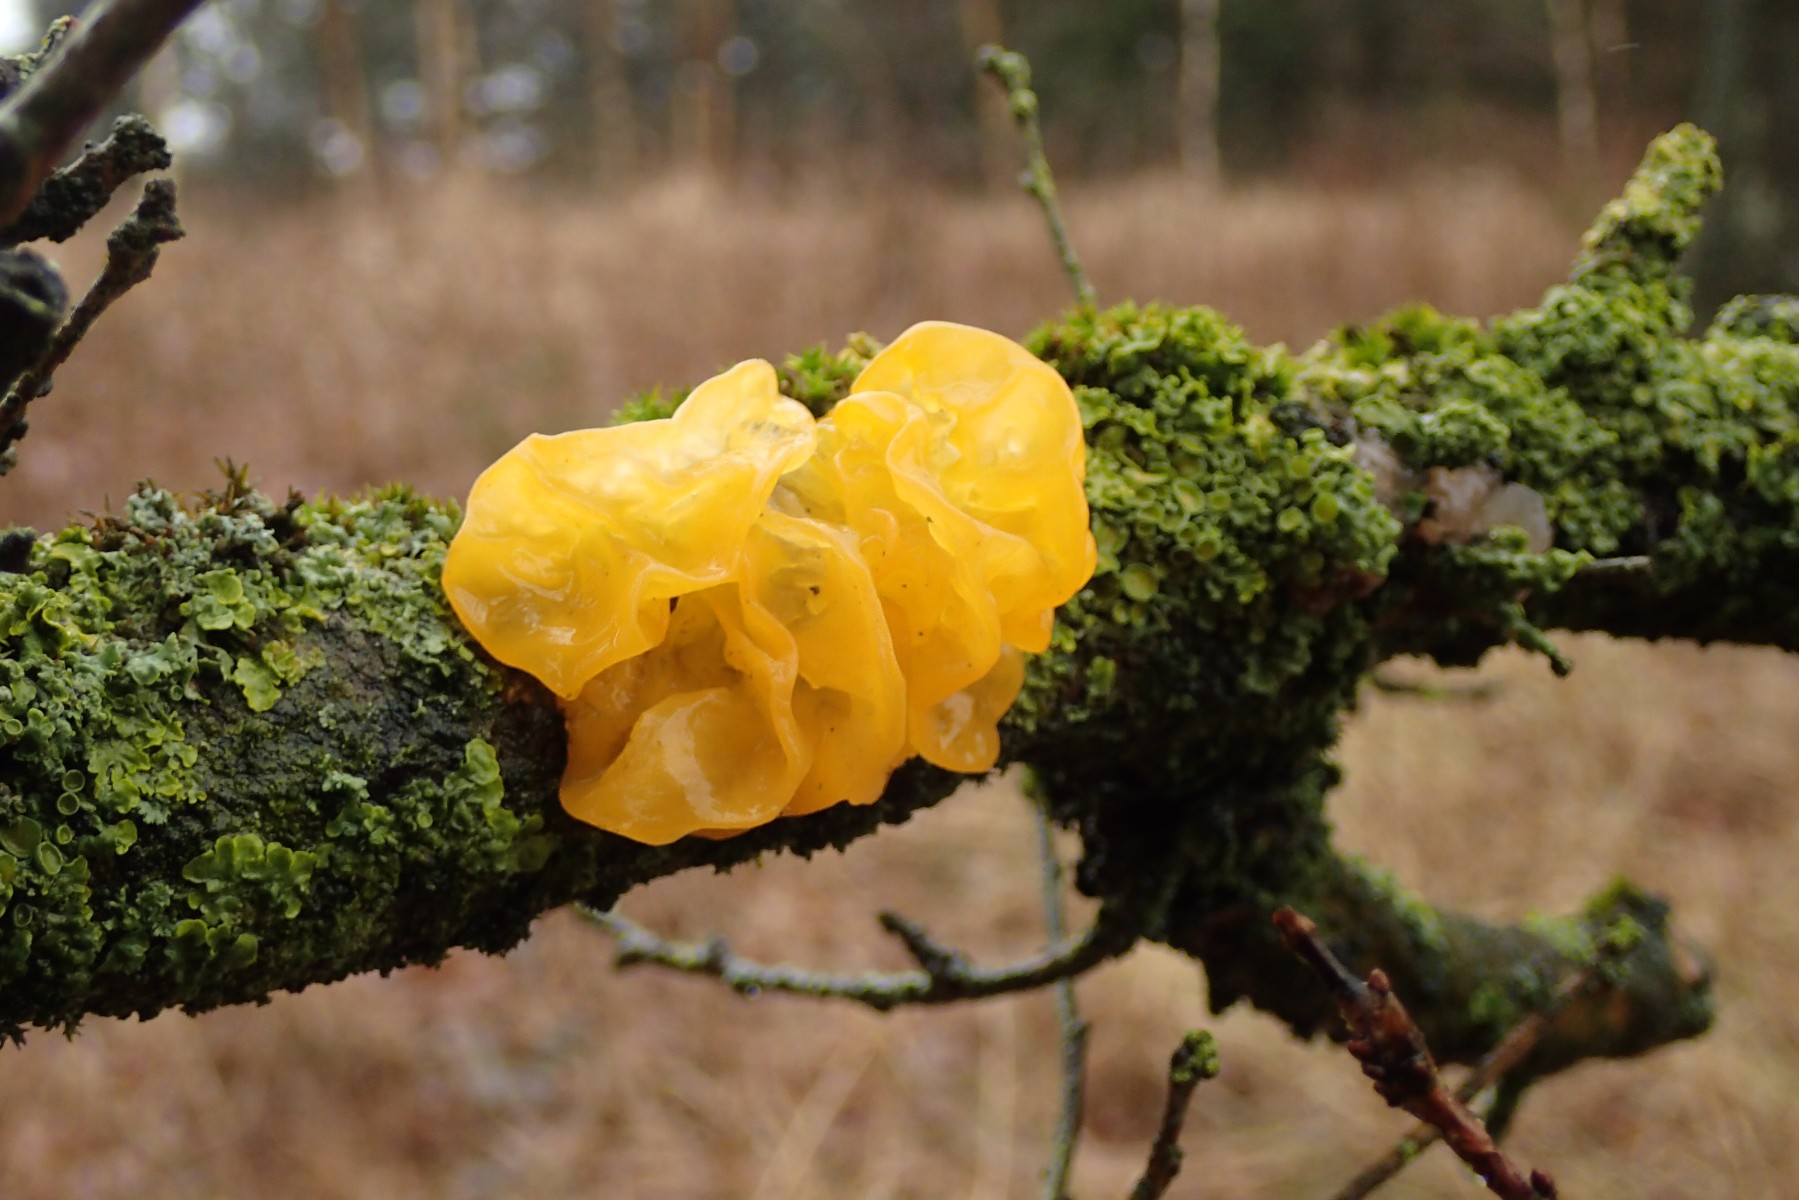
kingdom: Fungi
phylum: Basidiomycota
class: Tremellomycetes
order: Tremellales
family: Tremellaceae
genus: Tremella
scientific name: Tremella mesenterica
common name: gul bævresvamp
